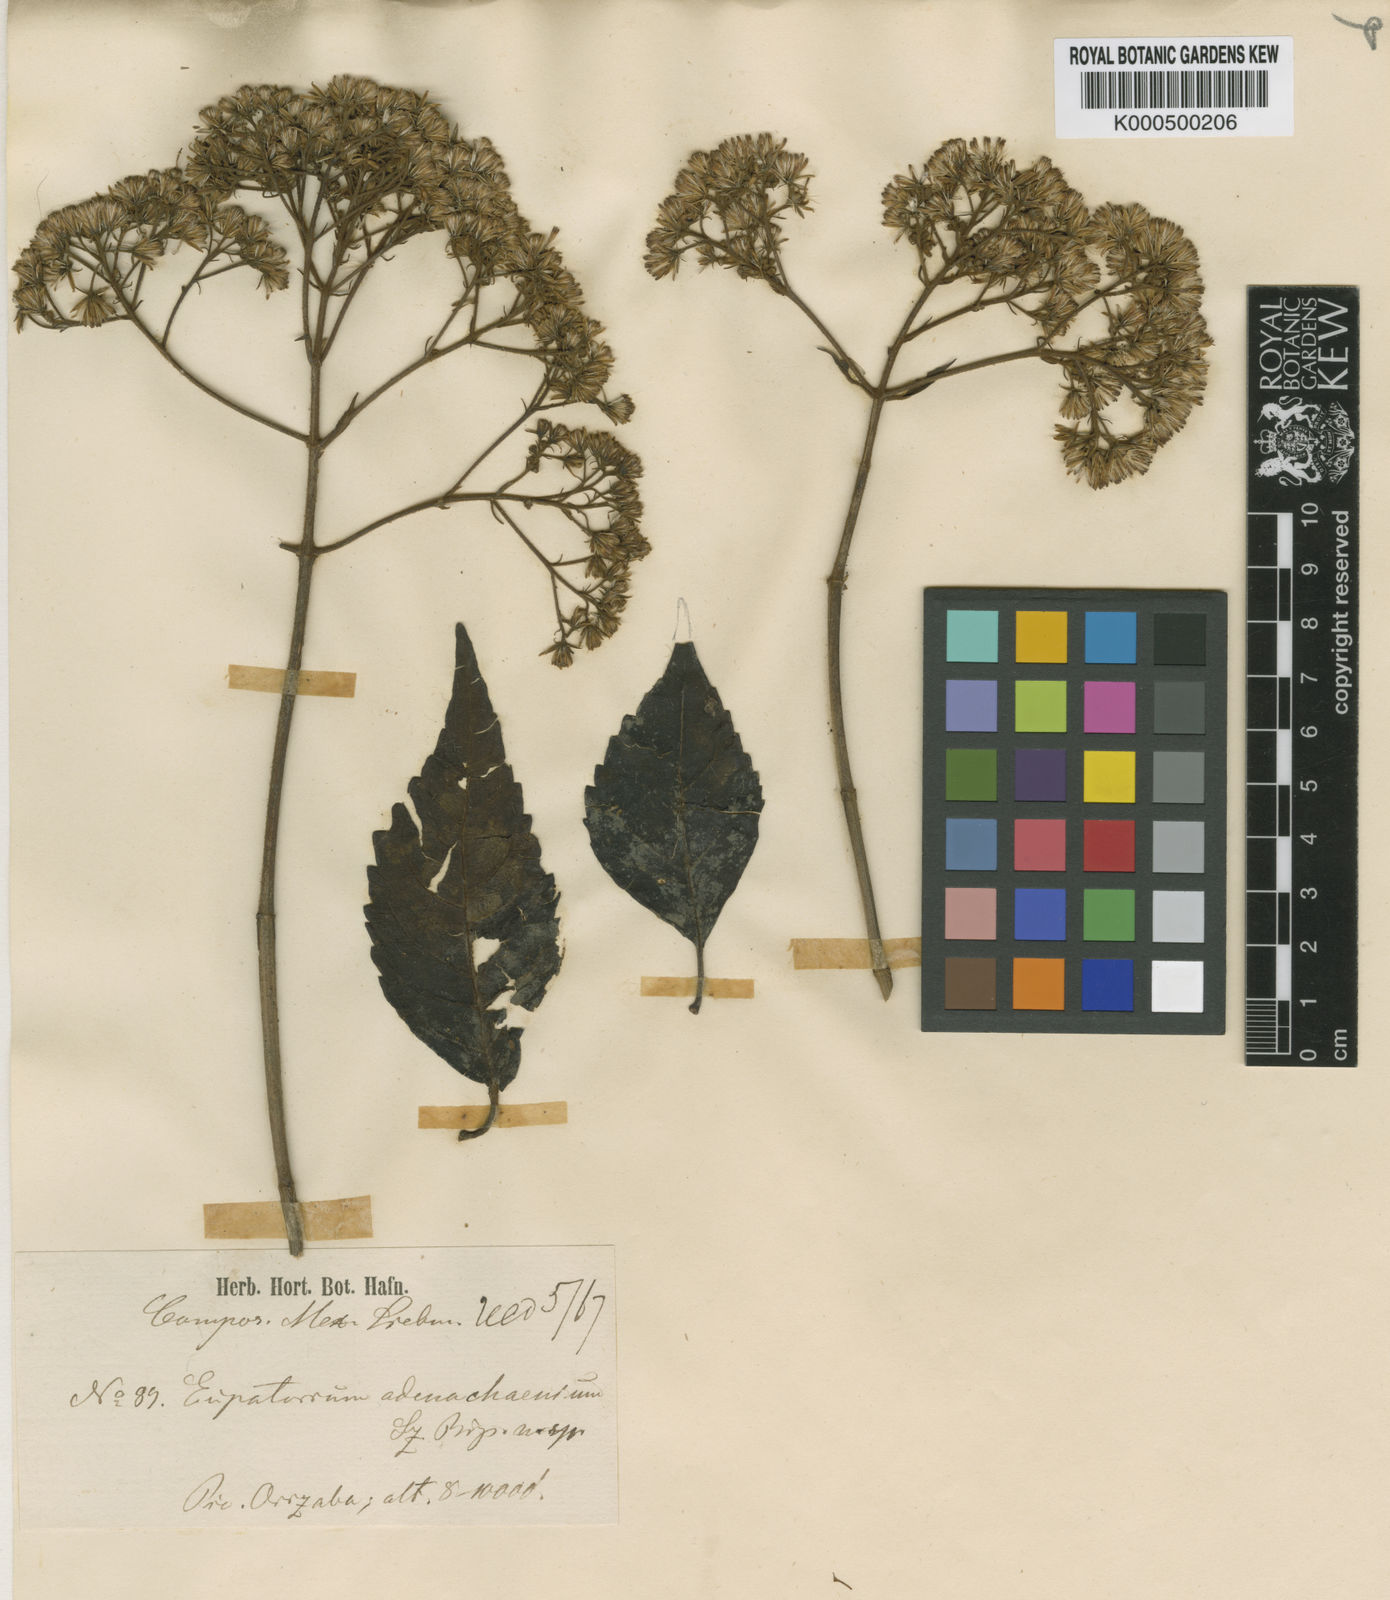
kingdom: Plantae
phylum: Tracheophyta
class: Magnoliopsida
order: Asterales
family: Asteraceae
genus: Ageratina
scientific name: Ageratina lucida
